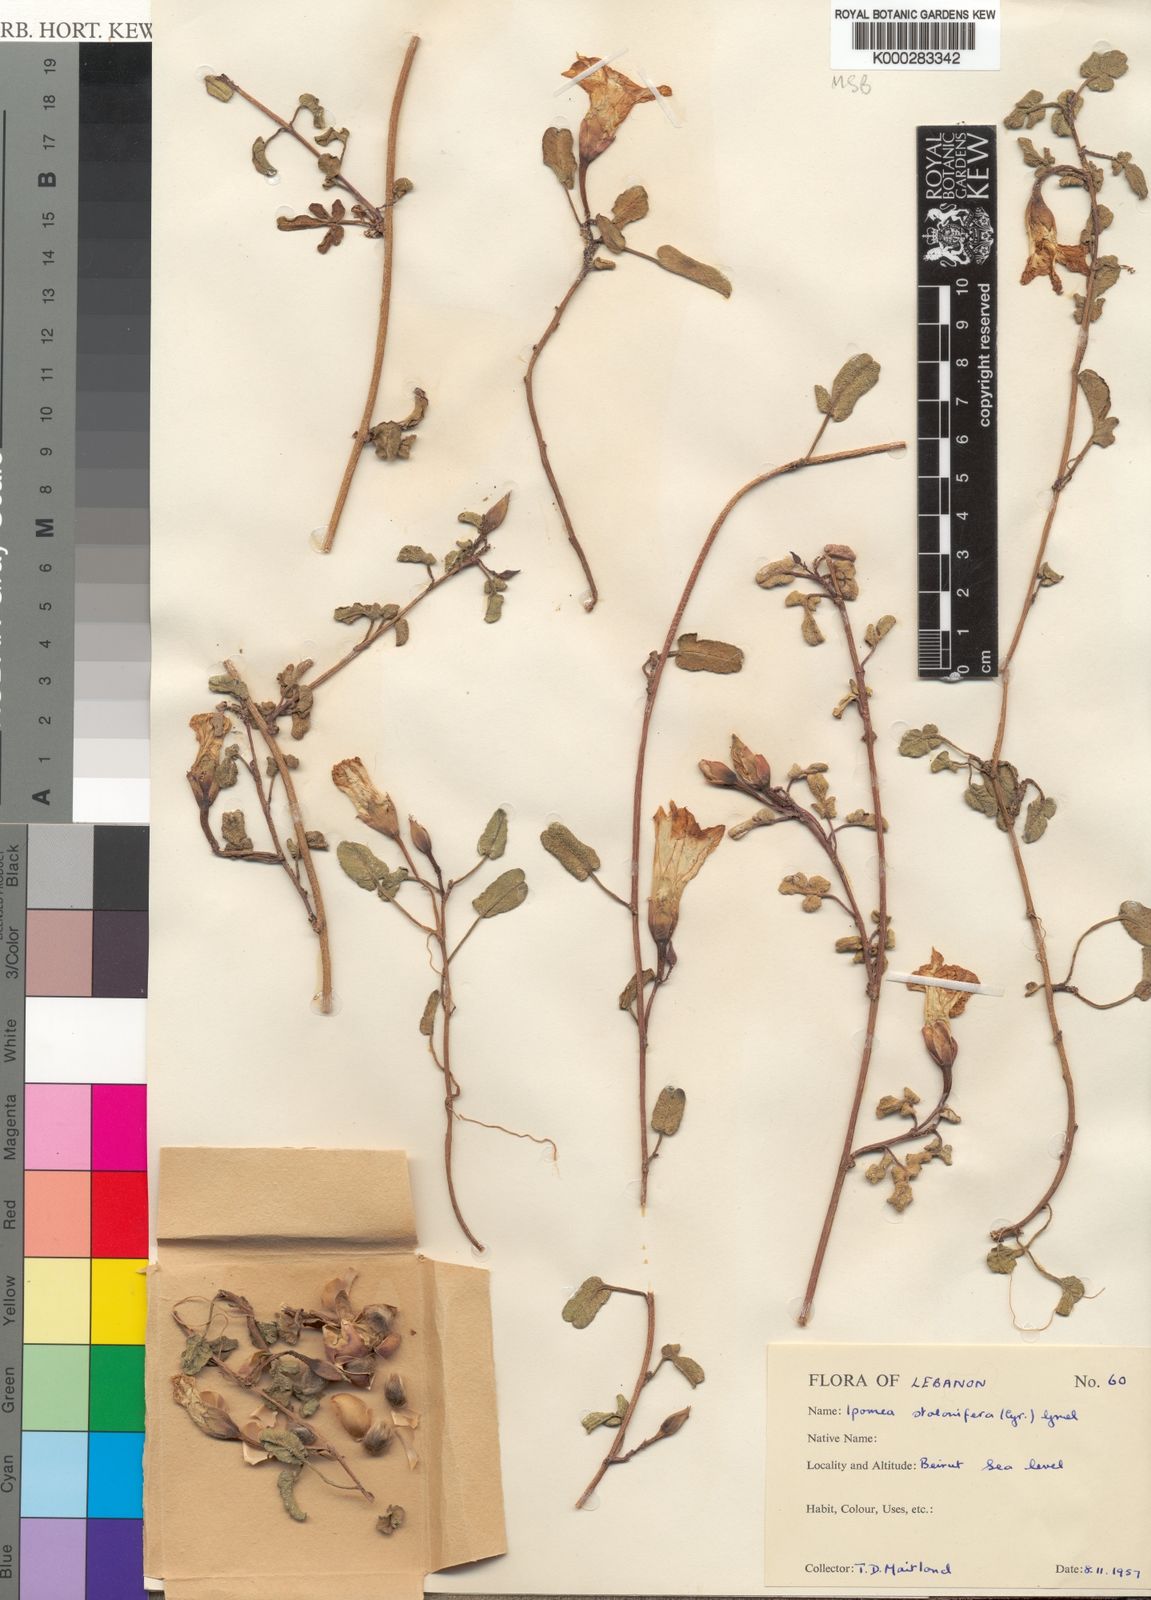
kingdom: Plantae
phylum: Tracheophyta
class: Magnoliopsida
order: Solanales
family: Convolvulaceae
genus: Ipomoea
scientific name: Ipomoea imperati
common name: Fiddle-leaf morning-glory
